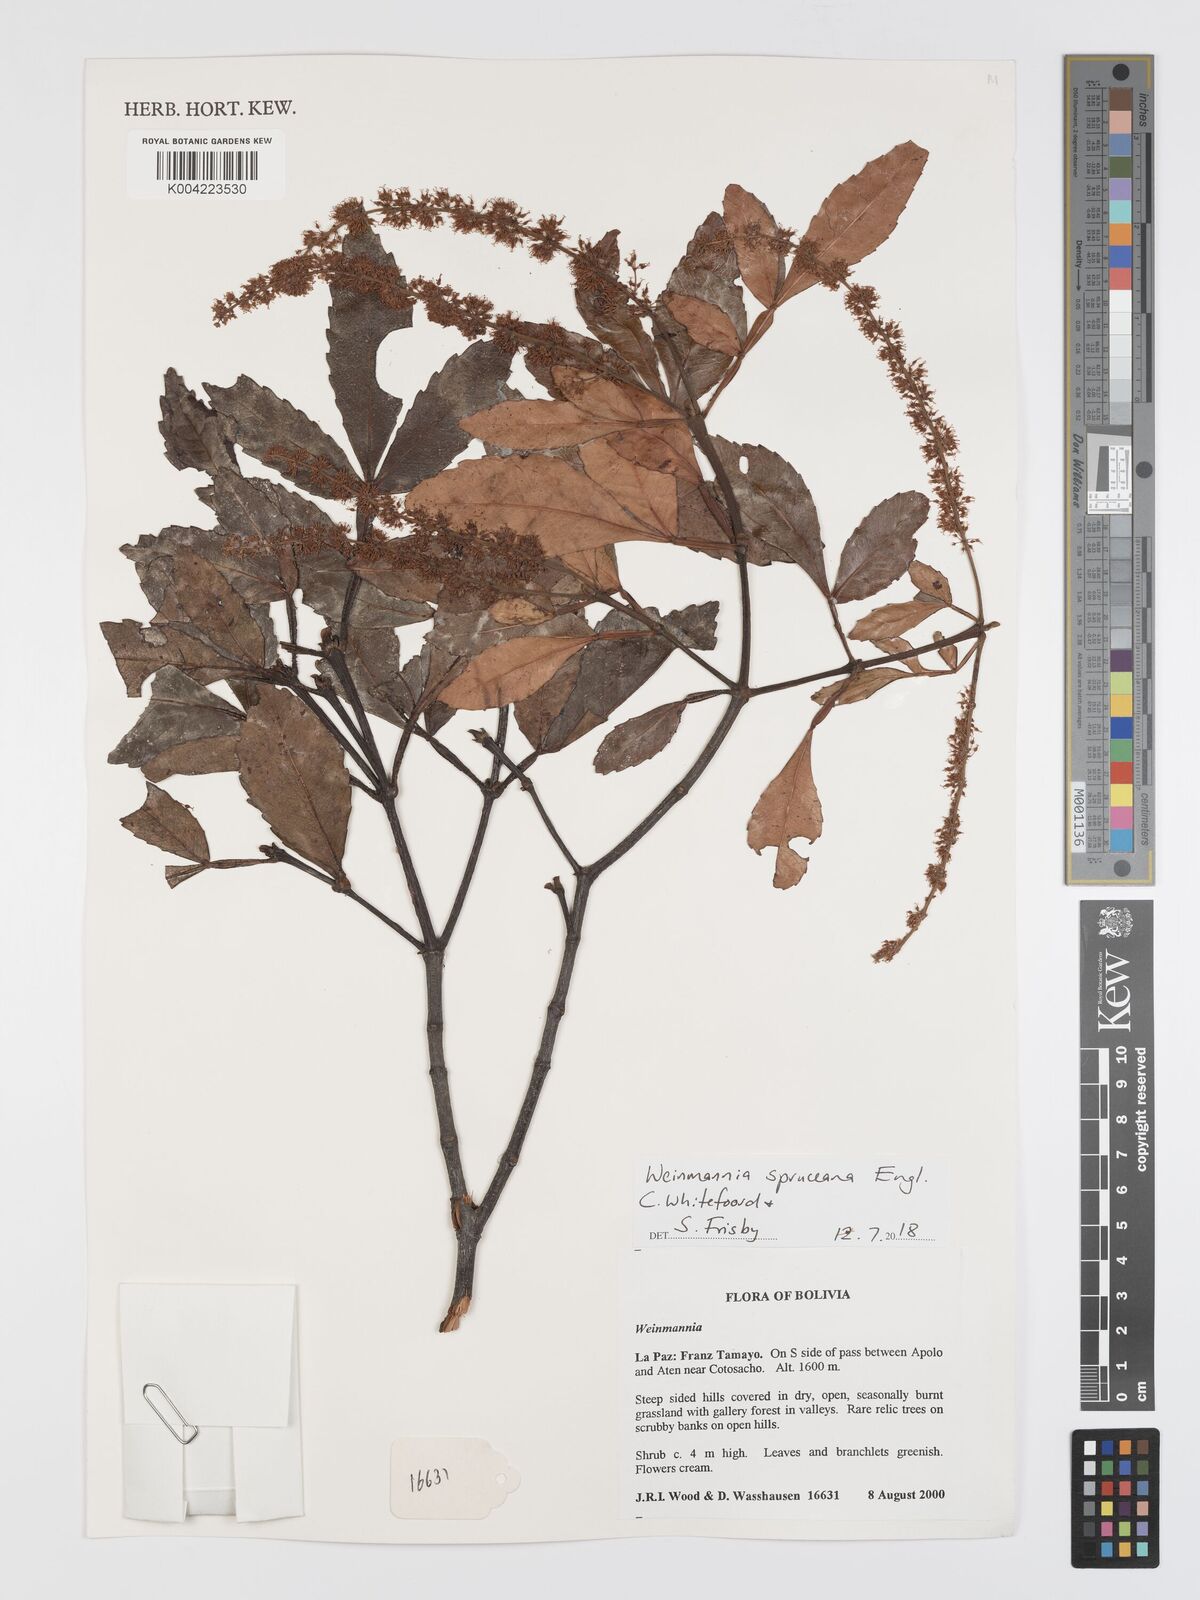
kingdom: Plantae
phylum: Tracheophyta
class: Magnoliopsida
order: Oxalidales
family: Cunoniaceae
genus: Weinmannia
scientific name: Weinmannia spruceana
